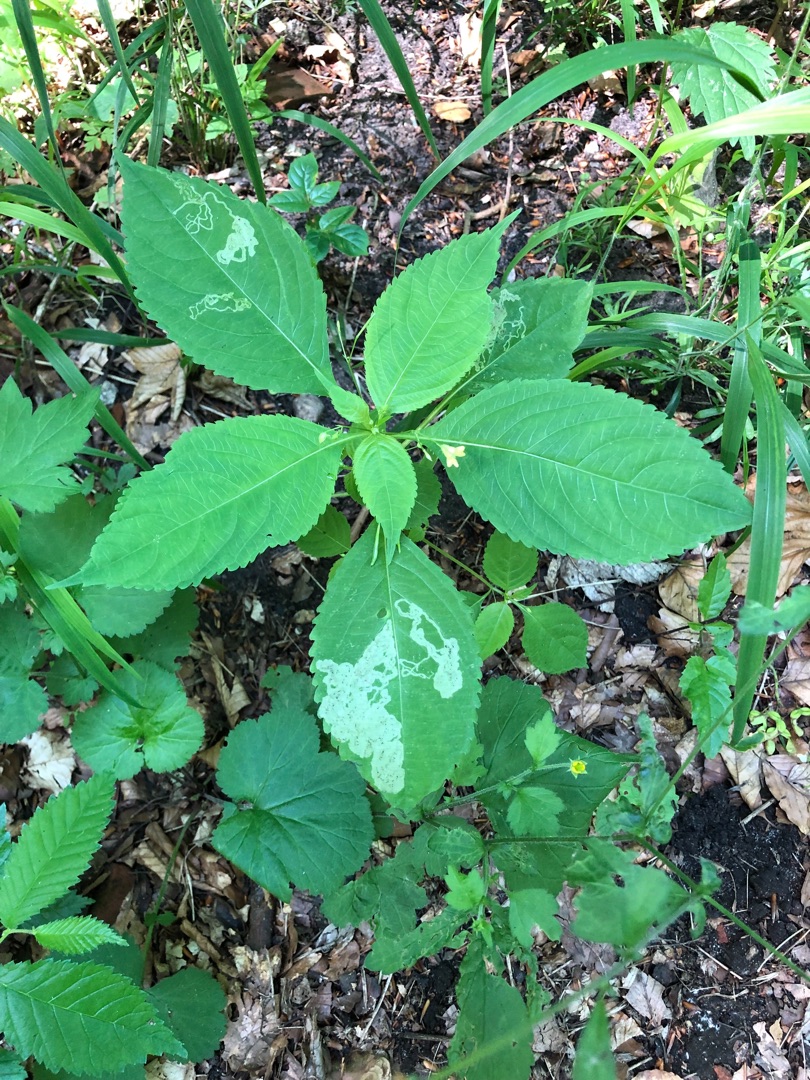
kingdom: Plantae
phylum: Tracheophyta
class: Magnoliopsida
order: Ericales
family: Balsaminaceae
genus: Impatiens
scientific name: Impatiens parviflora
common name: Småblomstret balsamin
